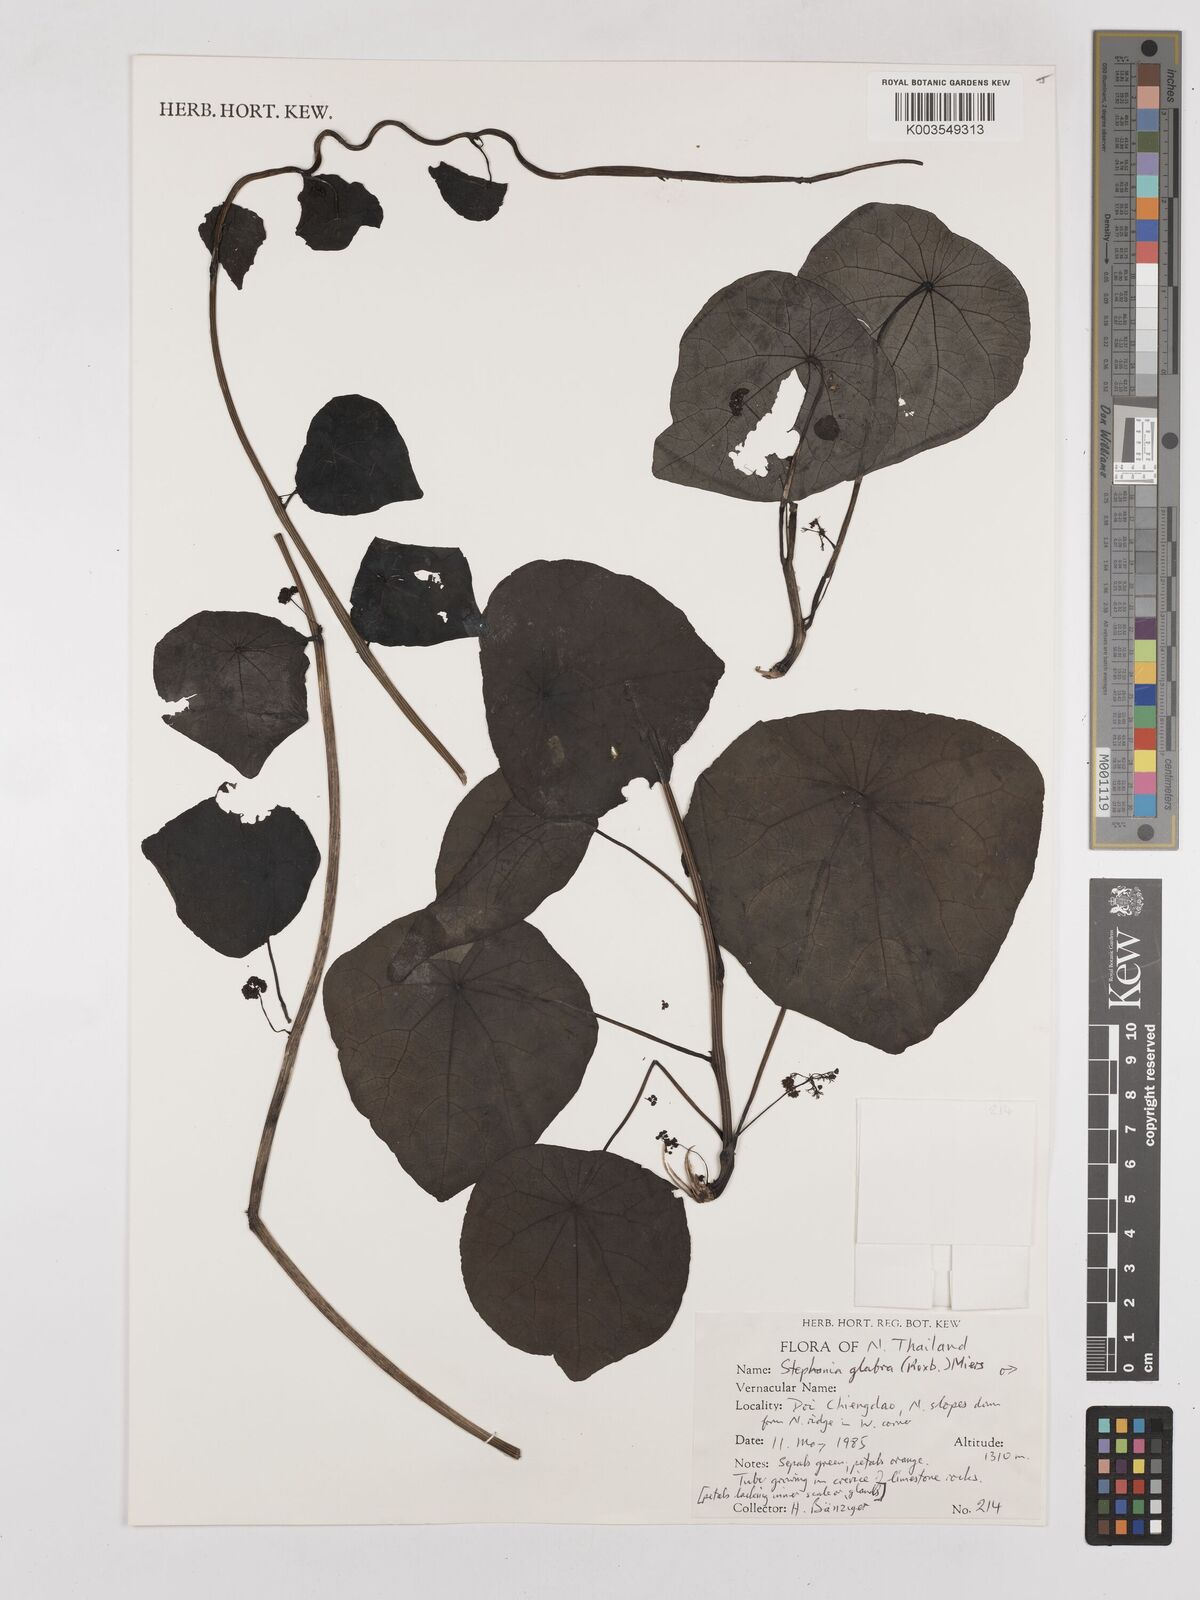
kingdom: Plantae
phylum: Tracheophyta
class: Magnoliopsida
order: Ranunculales
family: Menispermaceae
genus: Stephania
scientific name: Stephania rotunda
